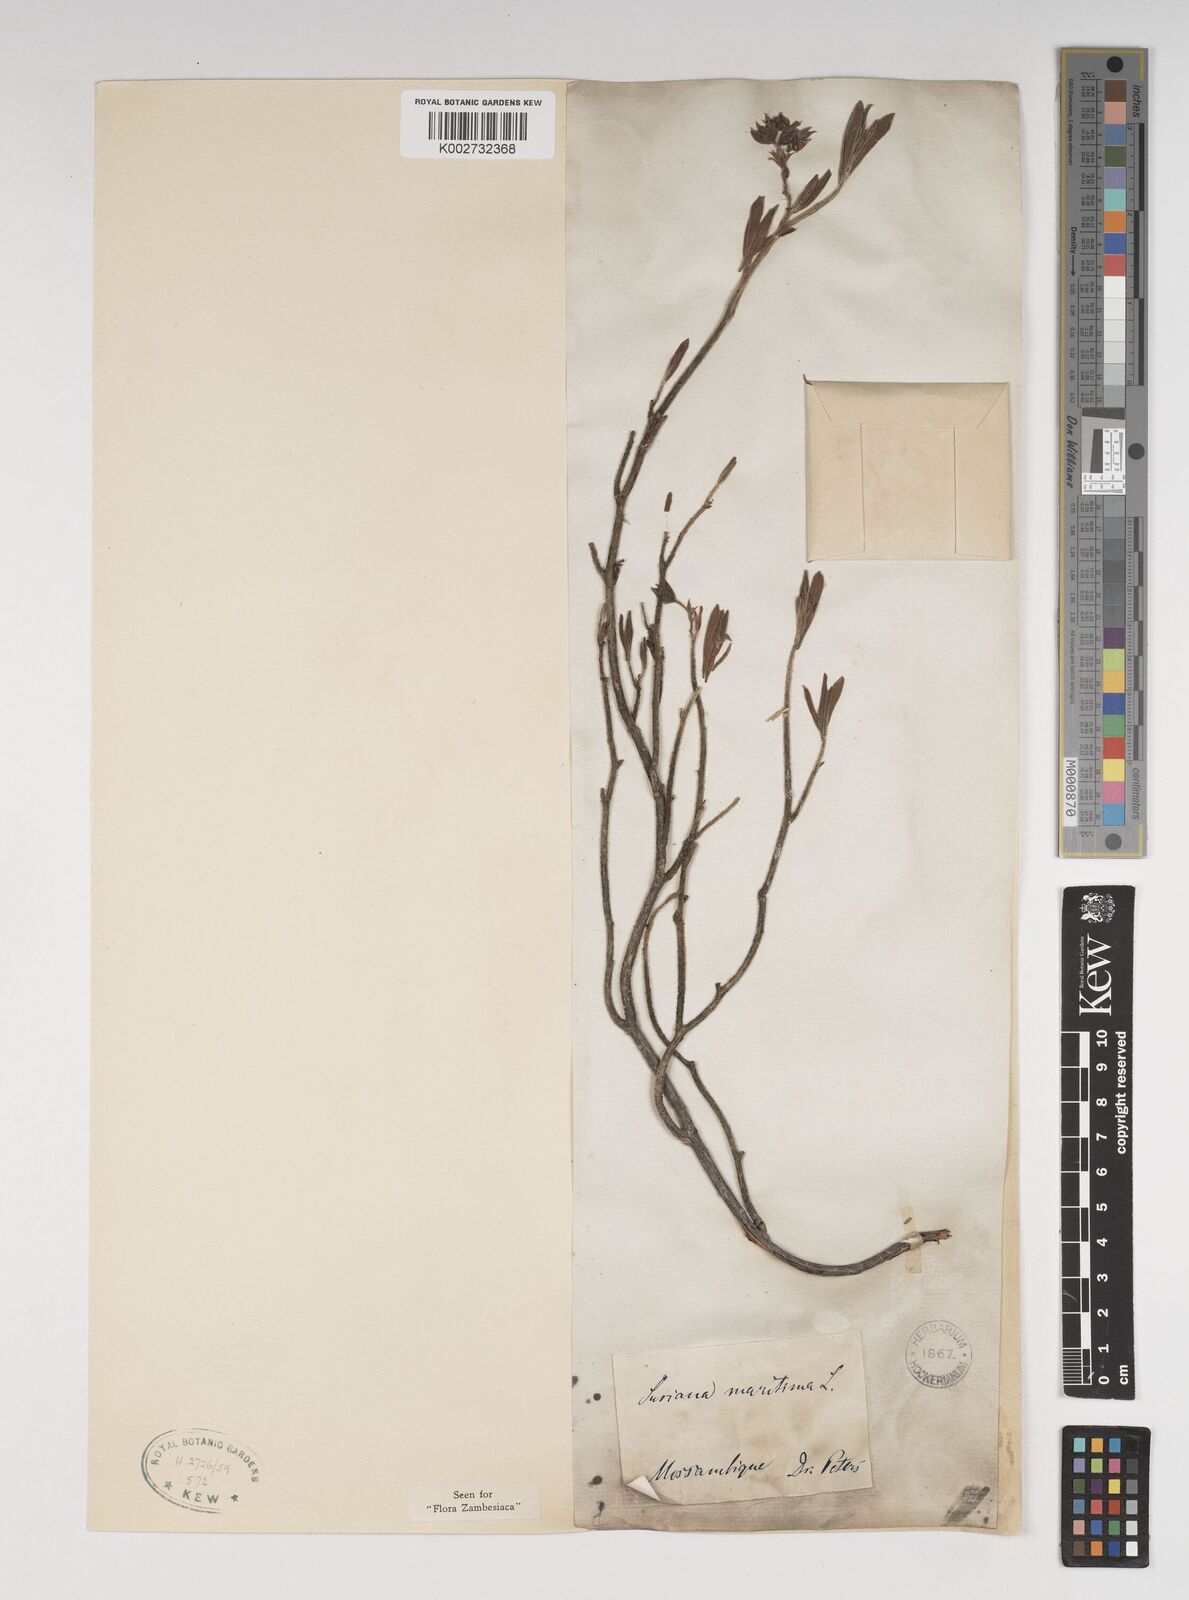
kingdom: Plantae
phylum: Tracheophyta
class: Magnoliopsida
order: Fabales
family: Surianaceae
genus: Suriana
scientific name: Suriana maritima
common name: Bay-cedar
